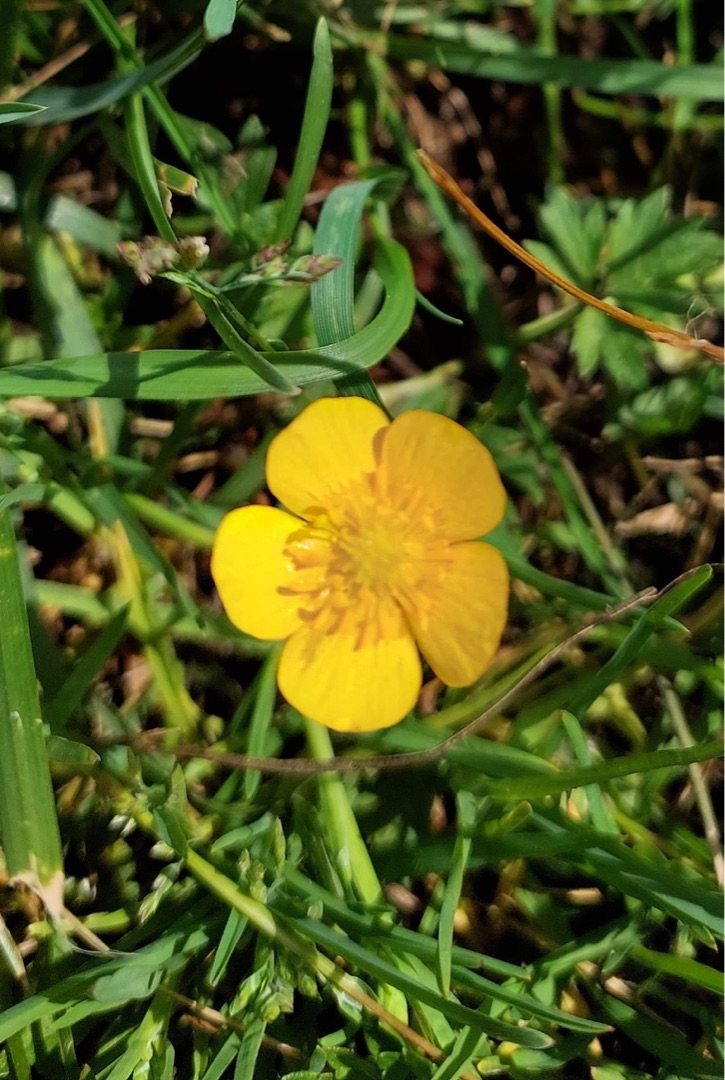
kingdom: Plantae
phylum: Tracheophyta
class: Magnoliopsida
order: Ranunculales
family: Ranunculaceae
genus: Ranunculus
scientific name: Ranunculus repens
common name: Lav ranunkel
